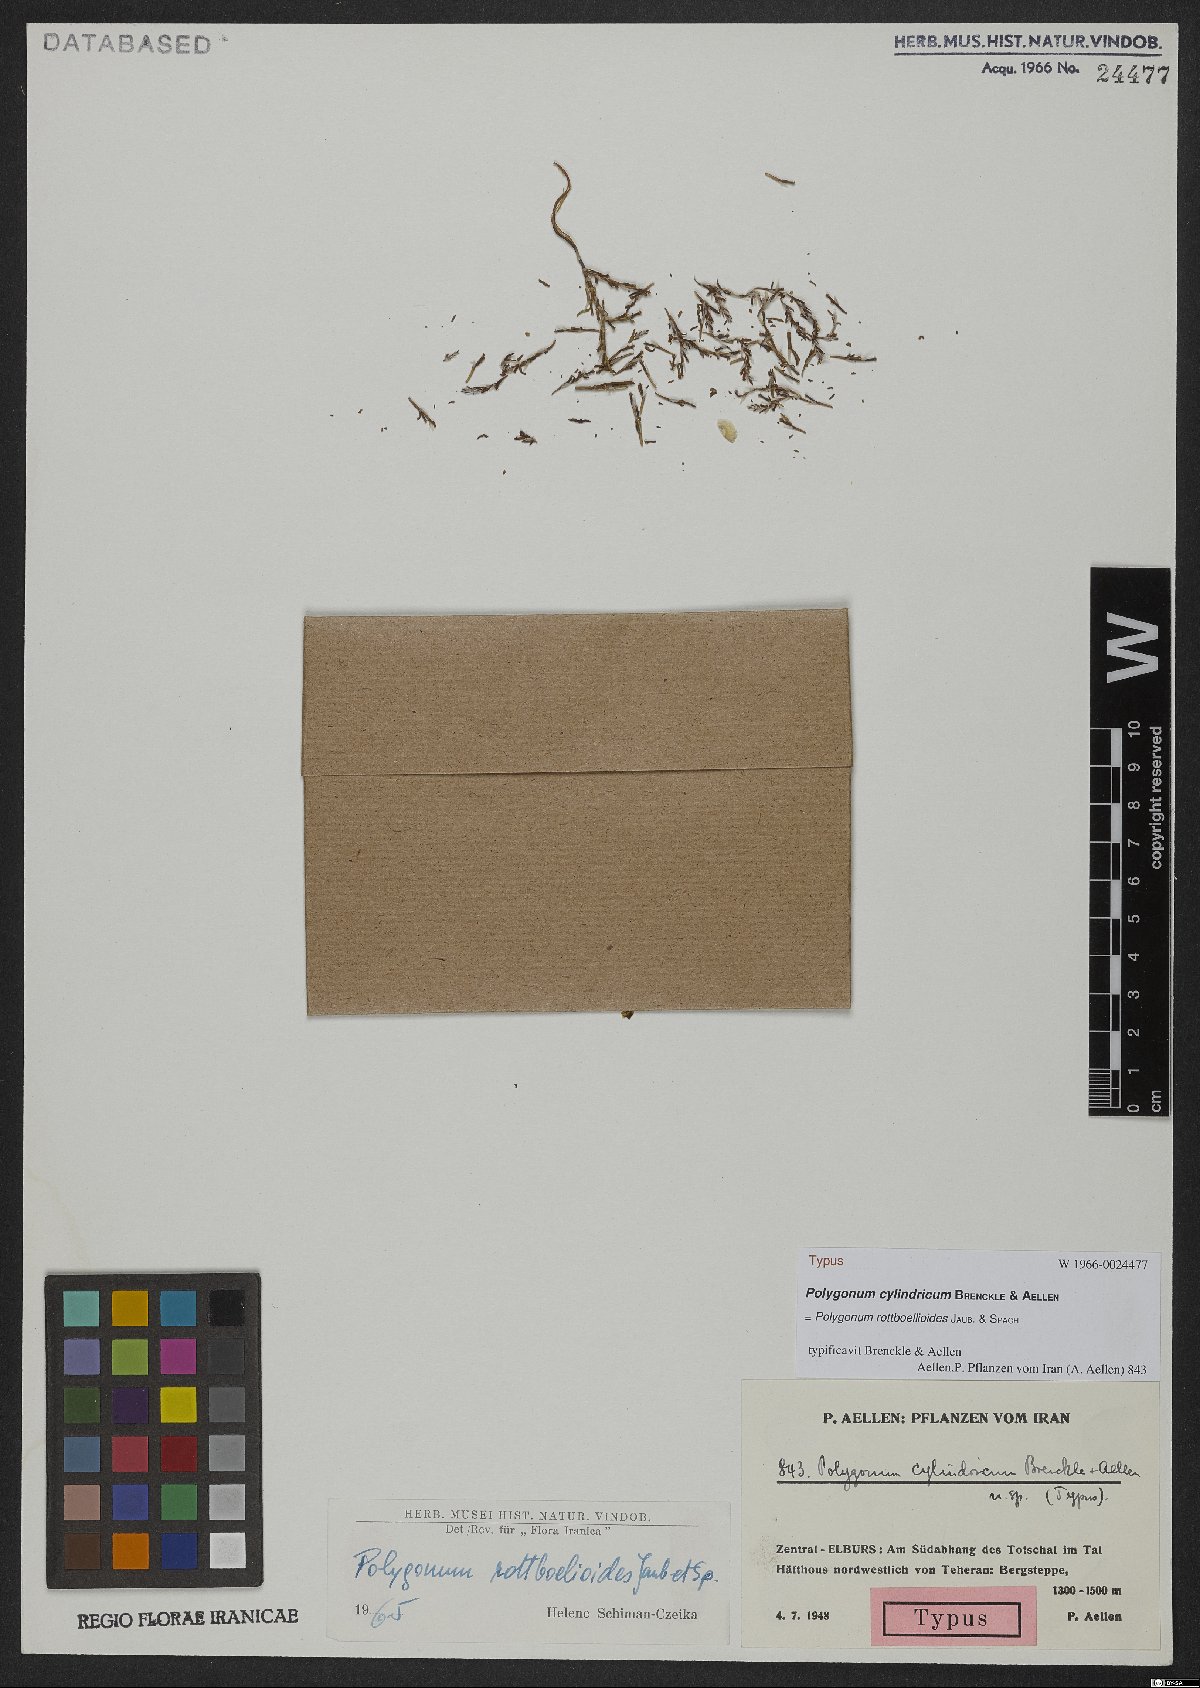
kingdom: Plantae
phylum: Tracheophyta
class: Magnoliopsida
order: Caryophyllales
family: Polygonaceae
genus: Polygonum
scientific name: Polygonum rottboellioides
